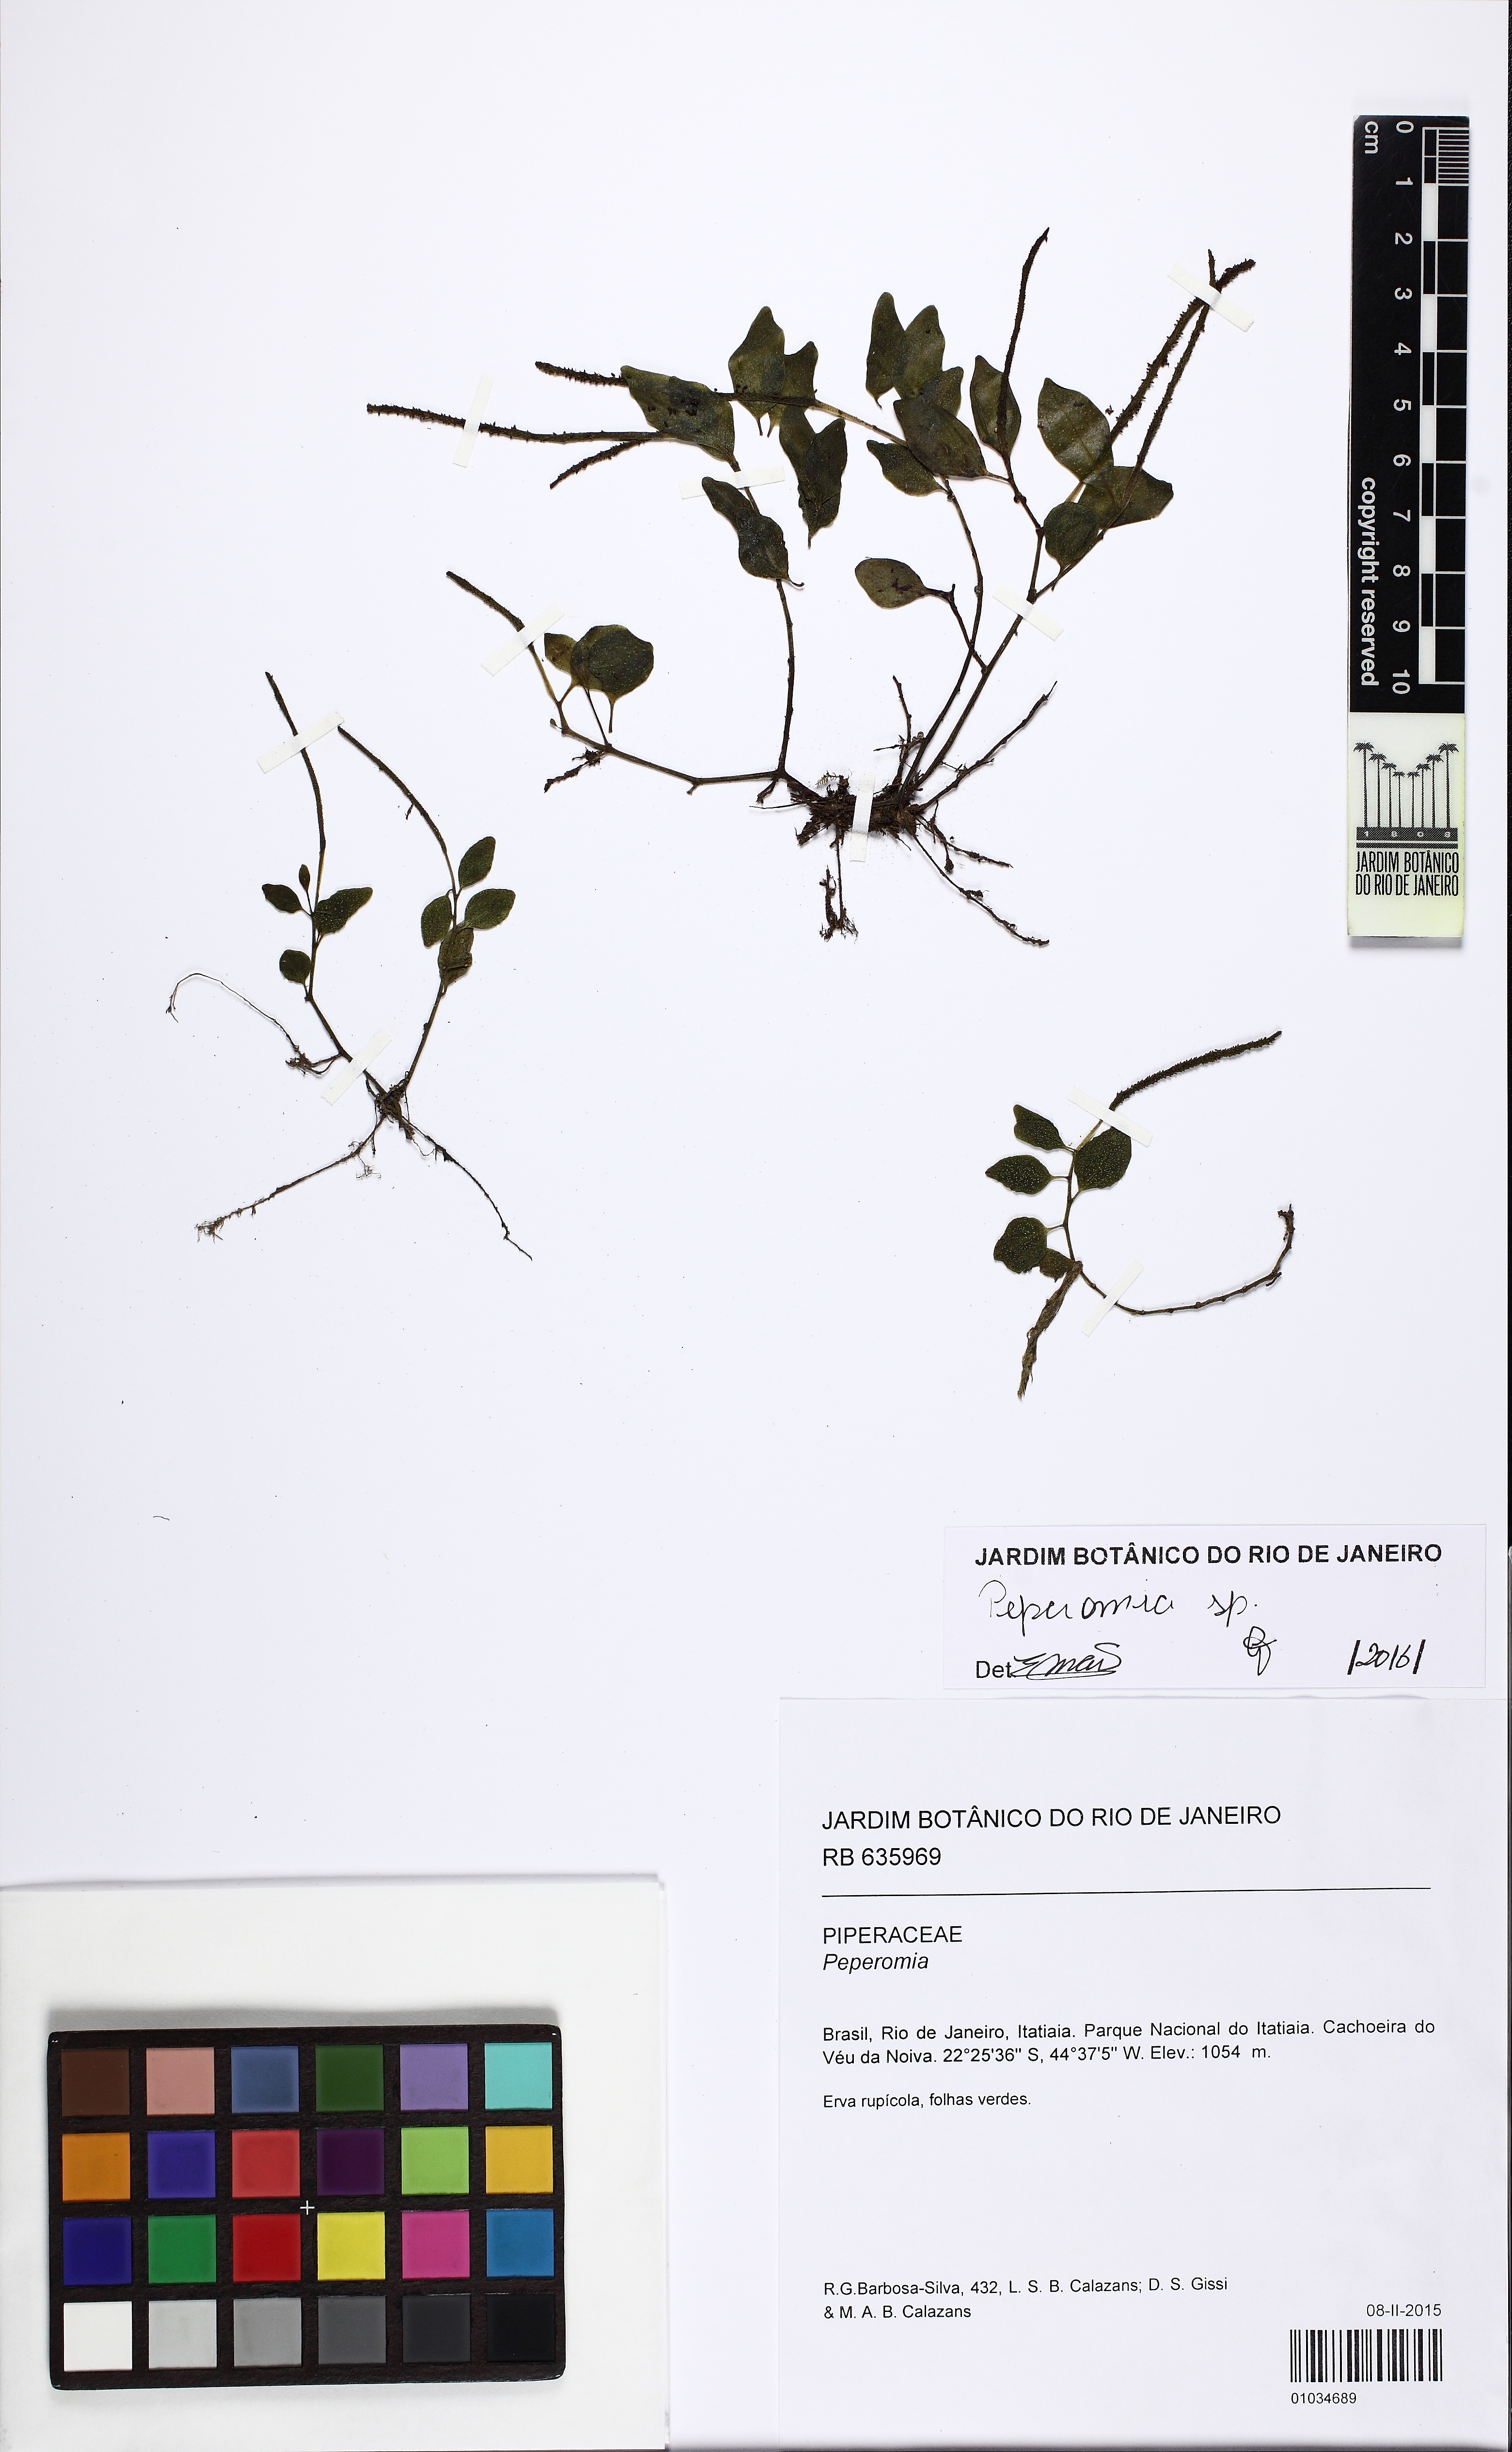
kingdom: Plantae
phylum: Tracheophyta
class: Magnoliopsida
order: Piperales
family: Piperaceae
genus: Peperomia
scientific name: Peperomia corcovadensis
